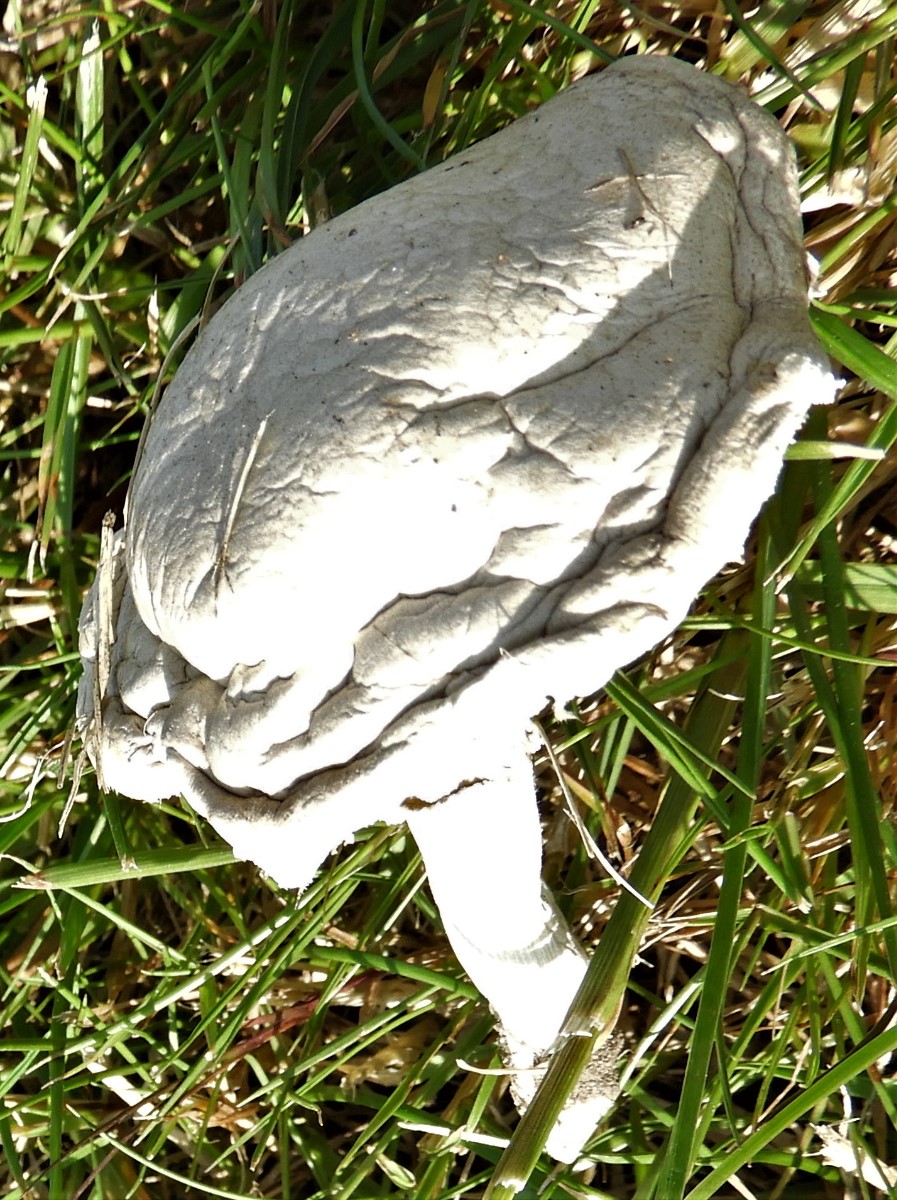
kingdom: Fungi
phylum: Basidiomycota
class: Agaricomycetes
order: Agaricales
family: Agaricaceae
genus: Agaricus
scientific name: Agaricus
